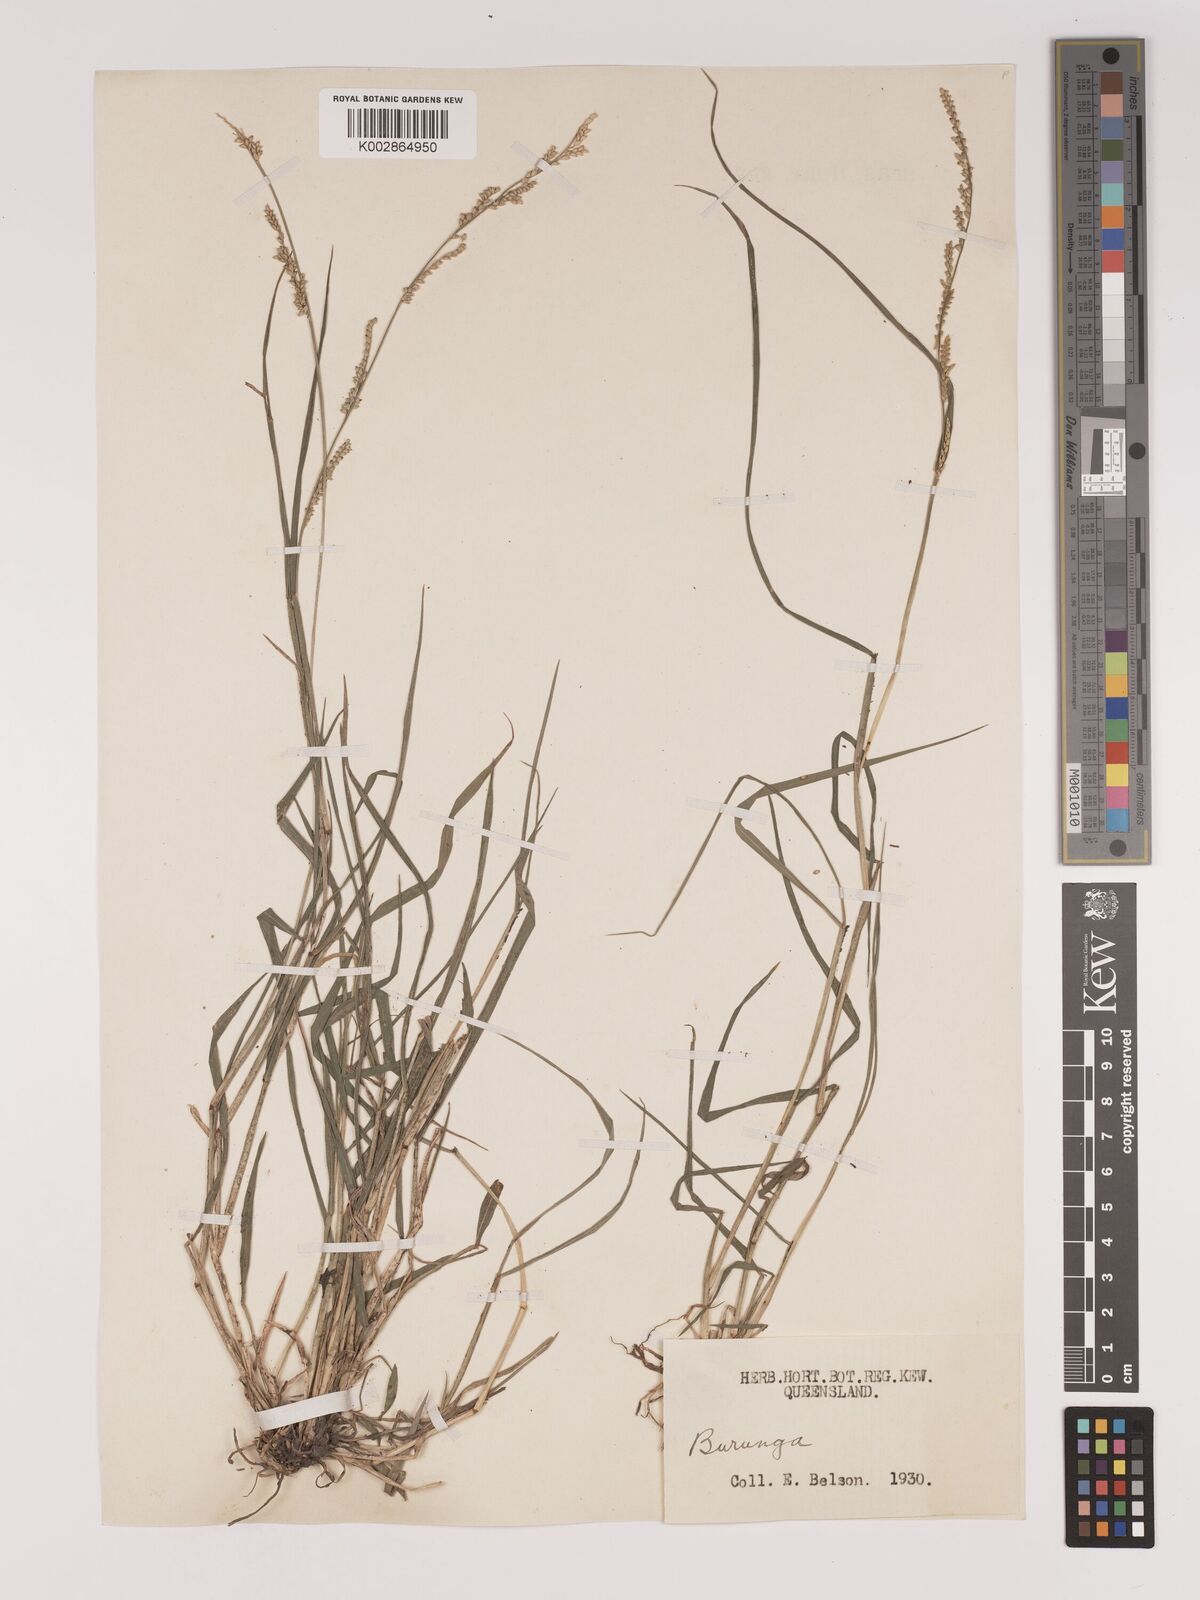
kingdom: Plantae
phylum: Tracheophyta
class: Liliopsida
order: Poales
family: Poaceae
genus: Setaria
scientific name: Setaria
